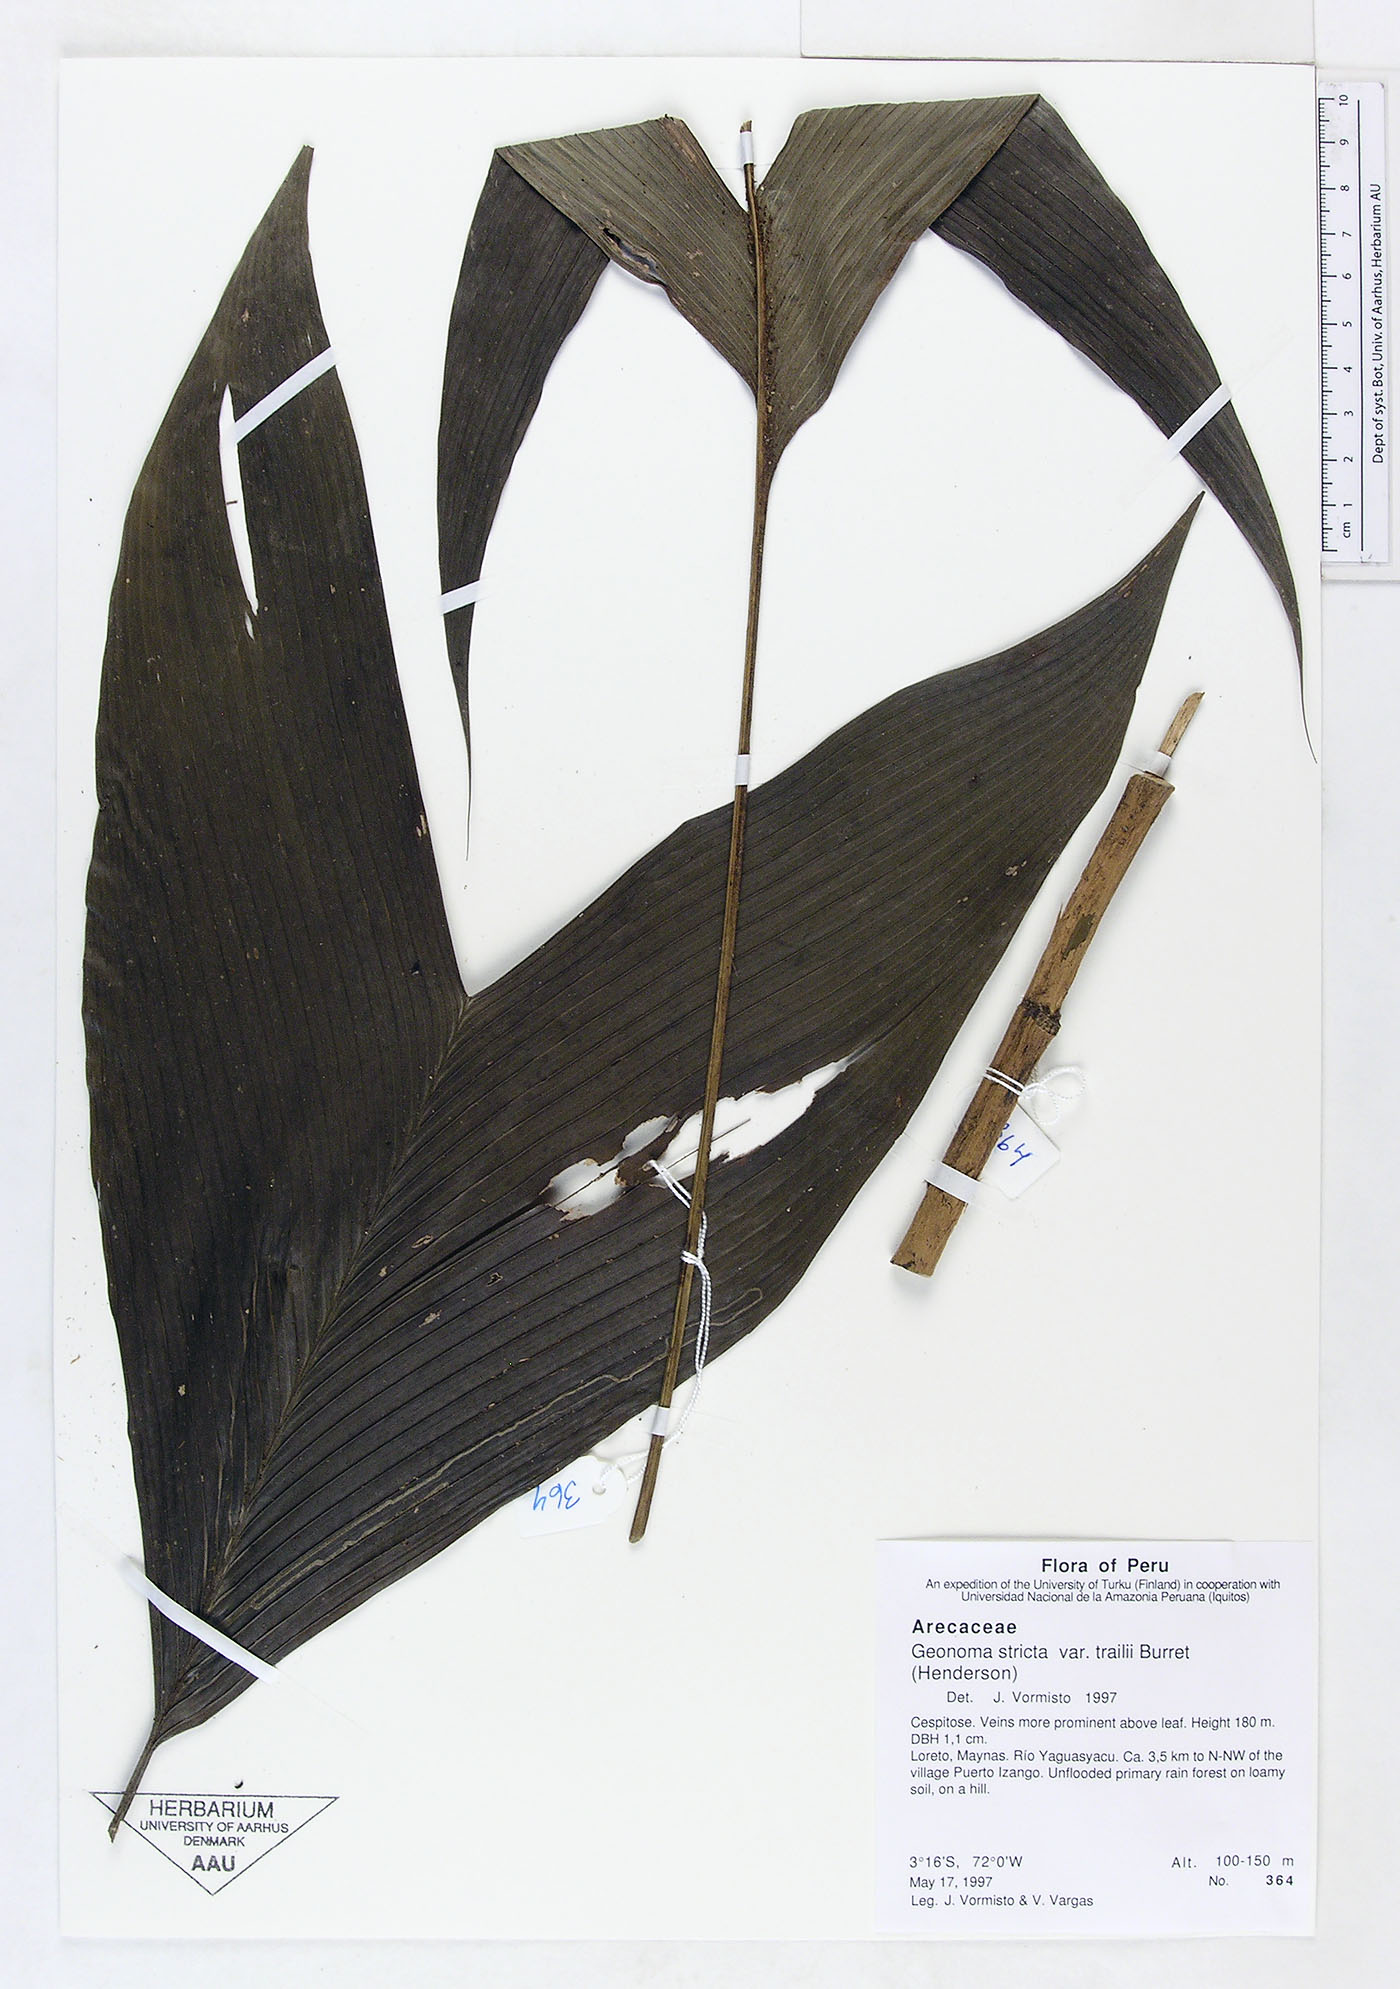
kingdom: Plantae
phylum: Tracheophyta
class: Liliopsida
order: Arecales
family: Arecaceae
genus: Geonoma
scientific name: Geonoma stricta
